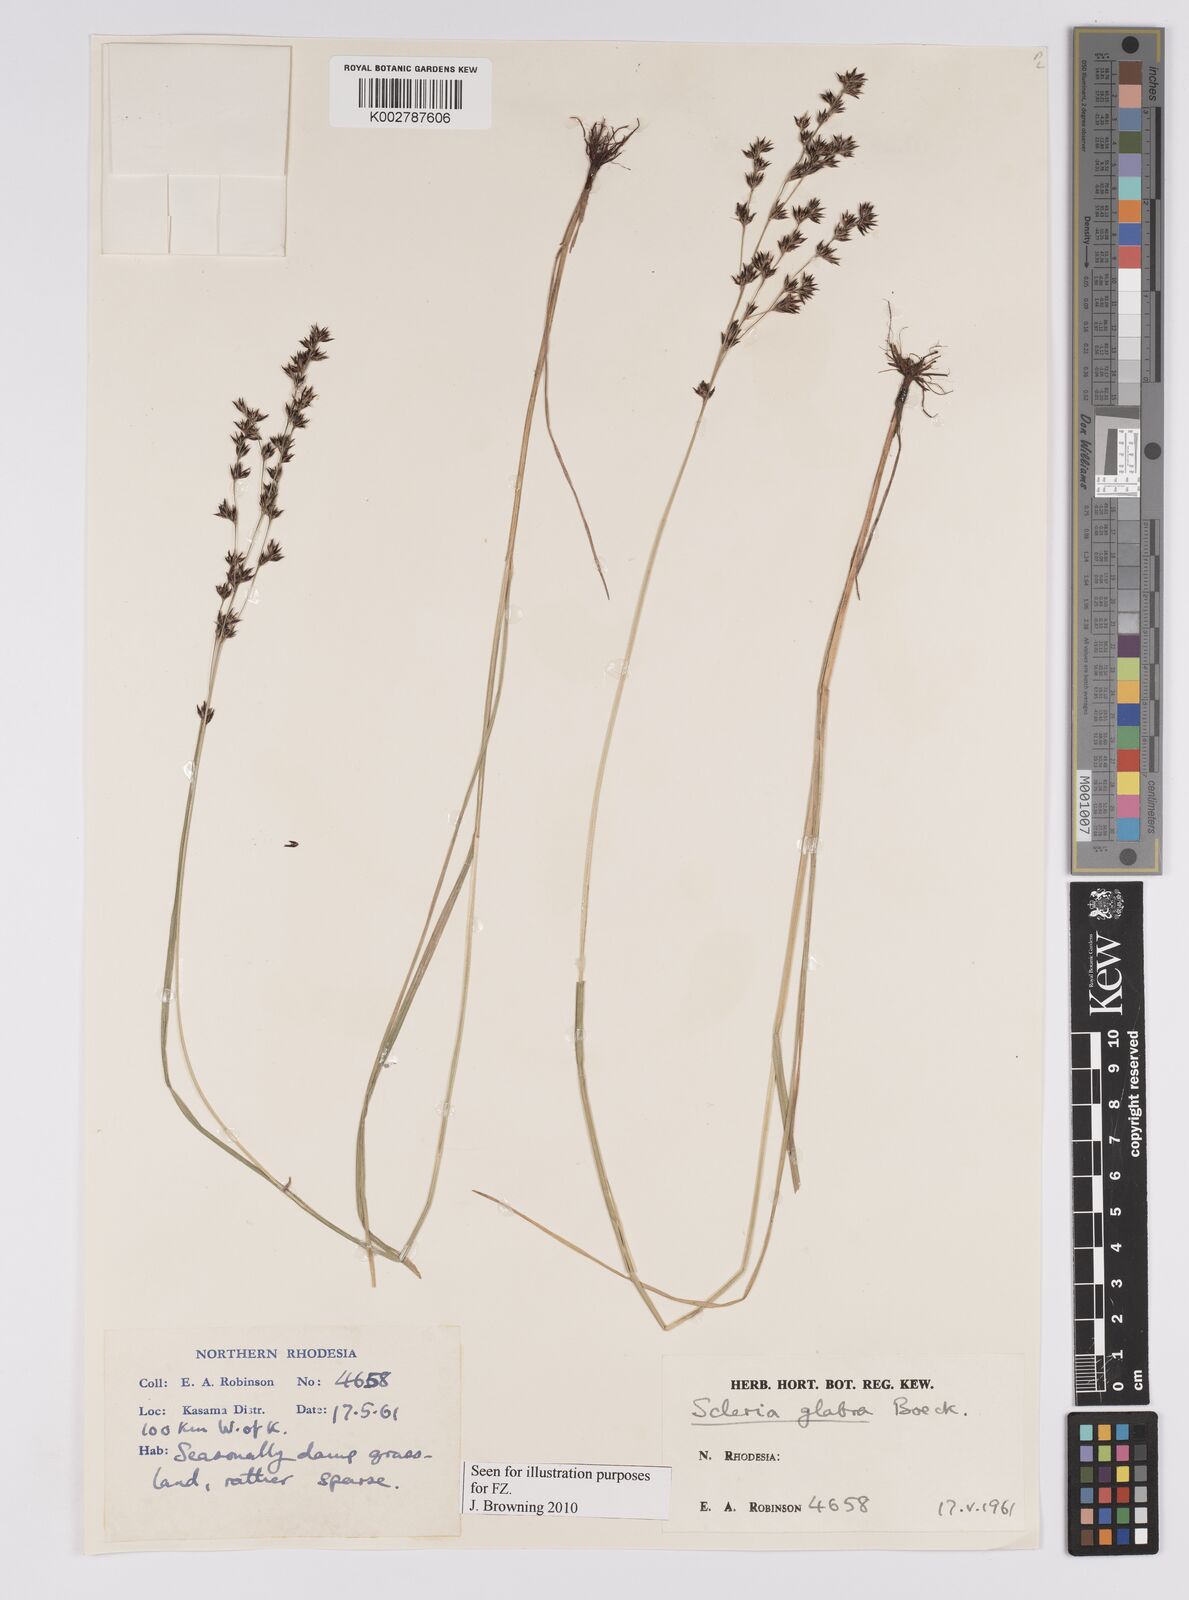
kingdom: Plantae
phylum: Tracheophyta
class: Liliopsida
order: Poales
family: Cyperaceae
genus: Scleria
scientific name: Scleria glabra
